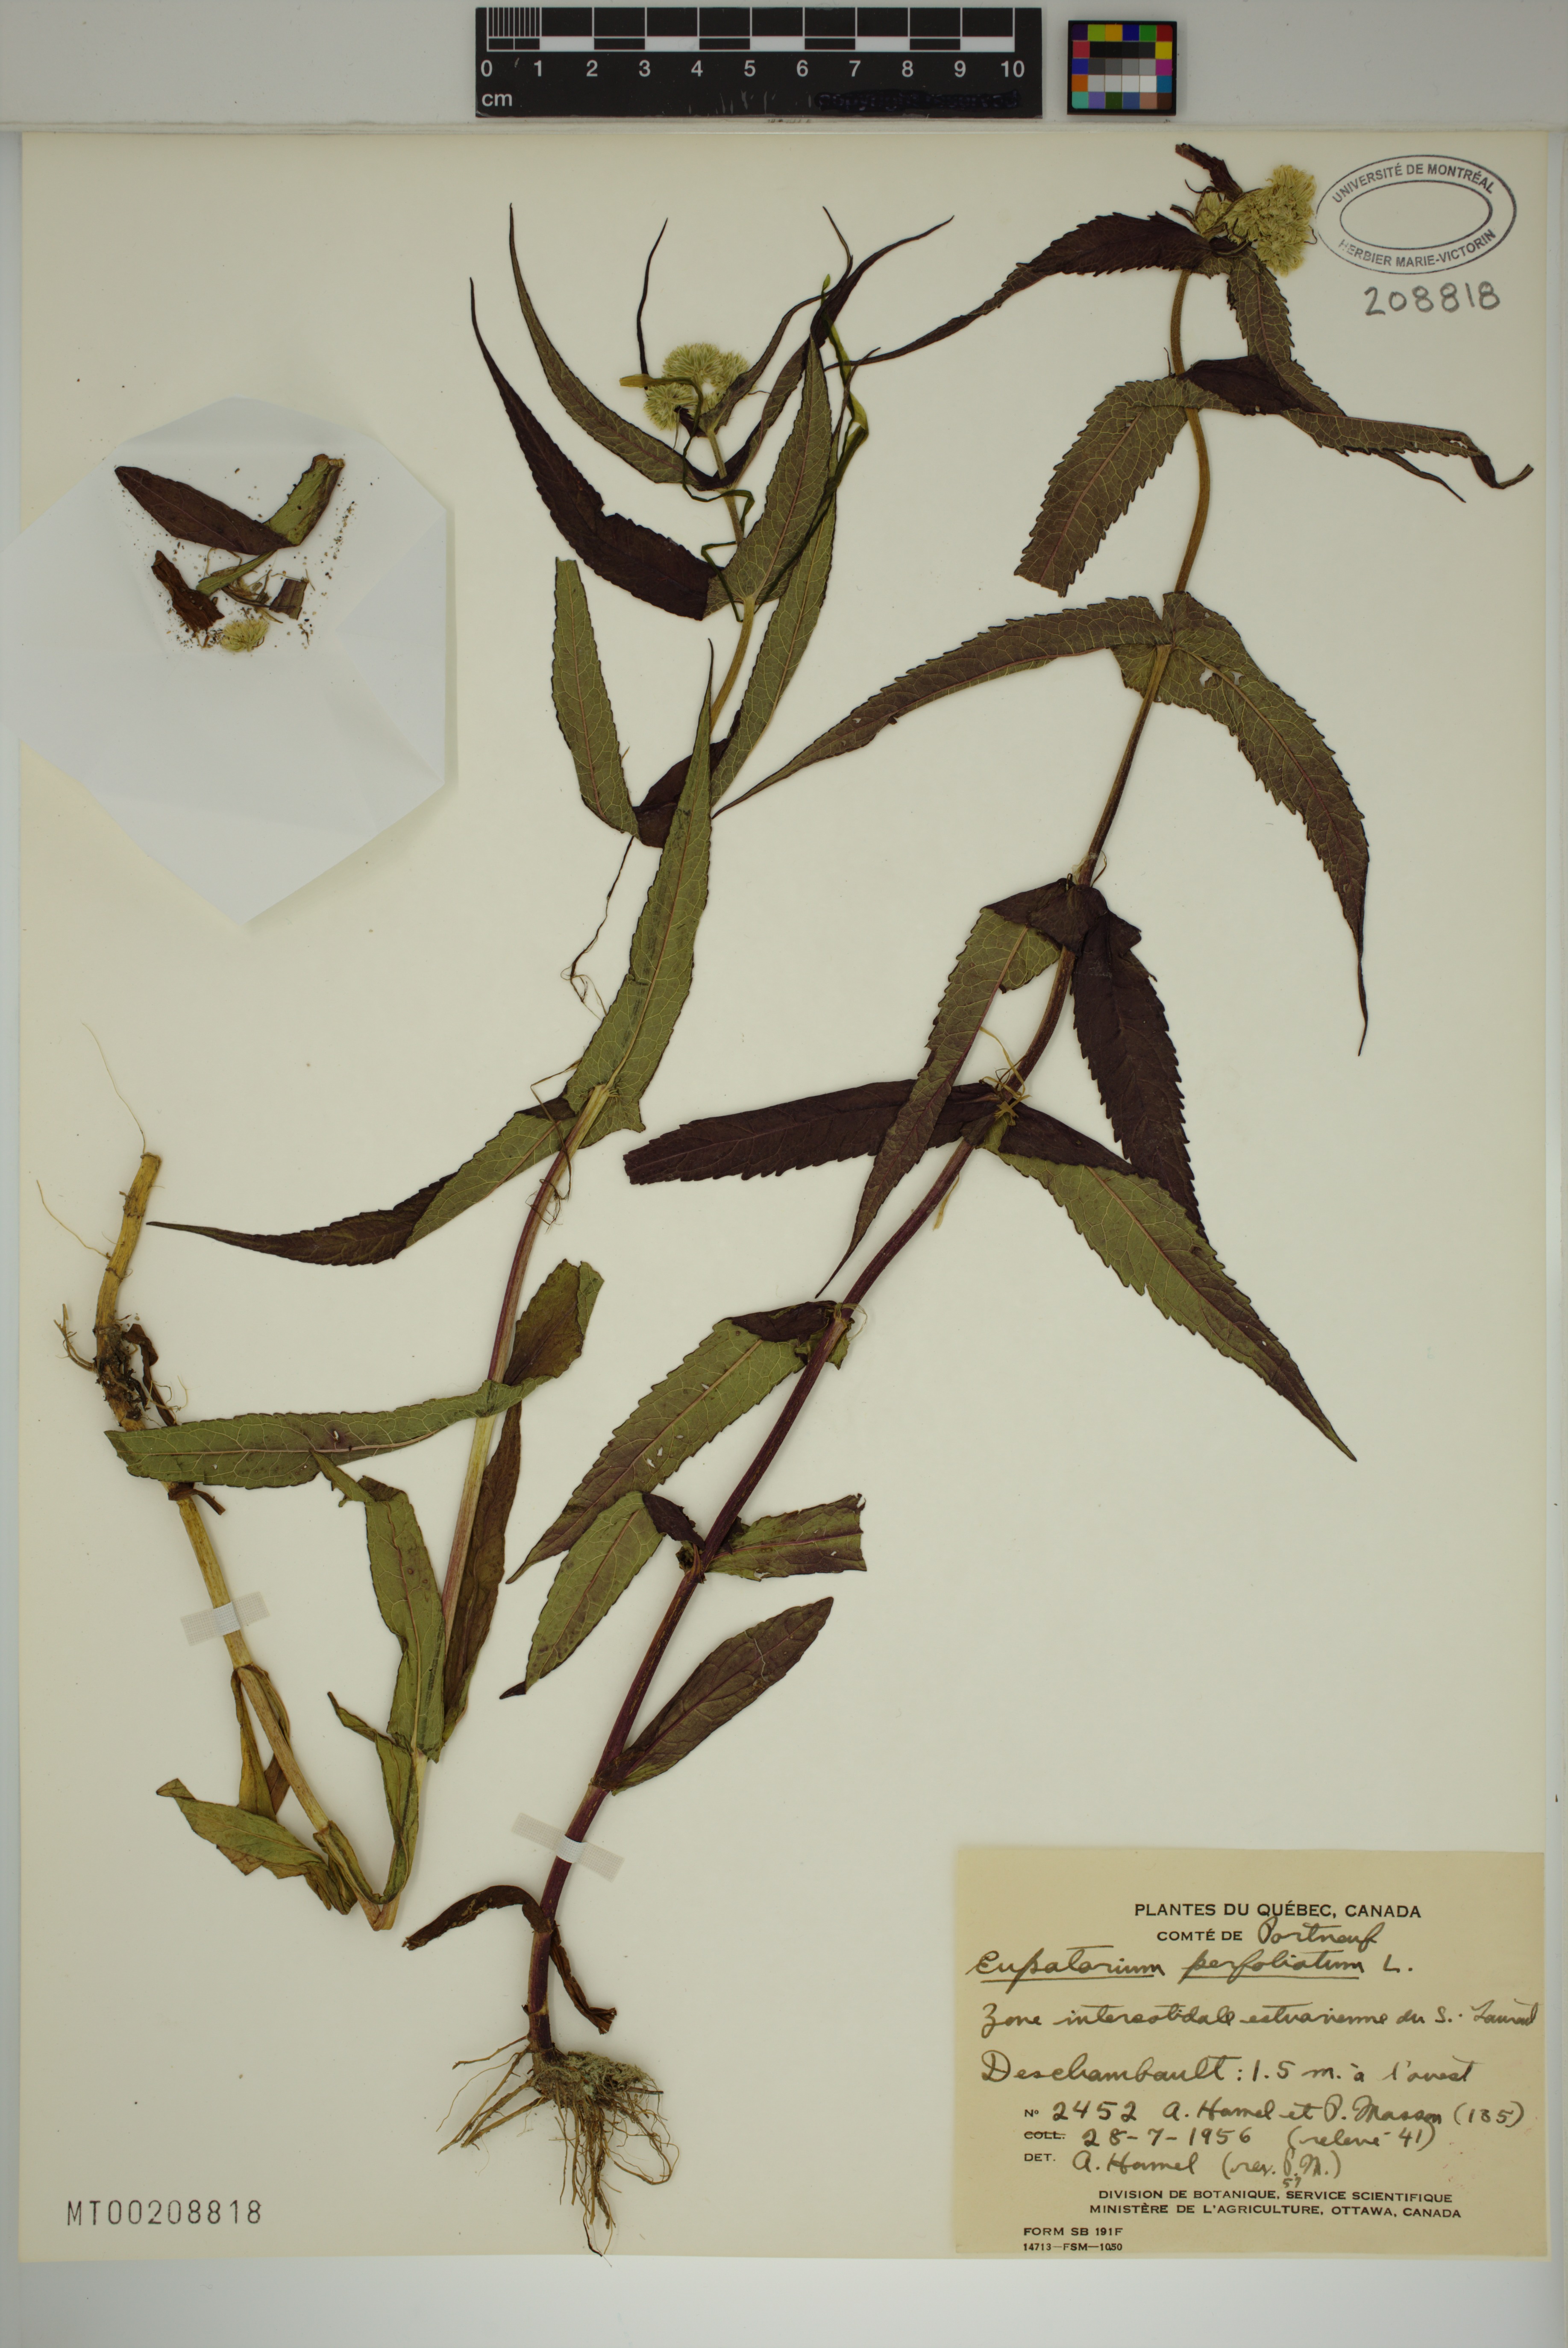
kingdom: Plantae
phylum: Tracheophyta
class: Magnoliopsida
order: Asterales
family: Asteraceae
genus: Eupatorium
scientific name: Eupatorium perfoliatum
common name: Boneset
